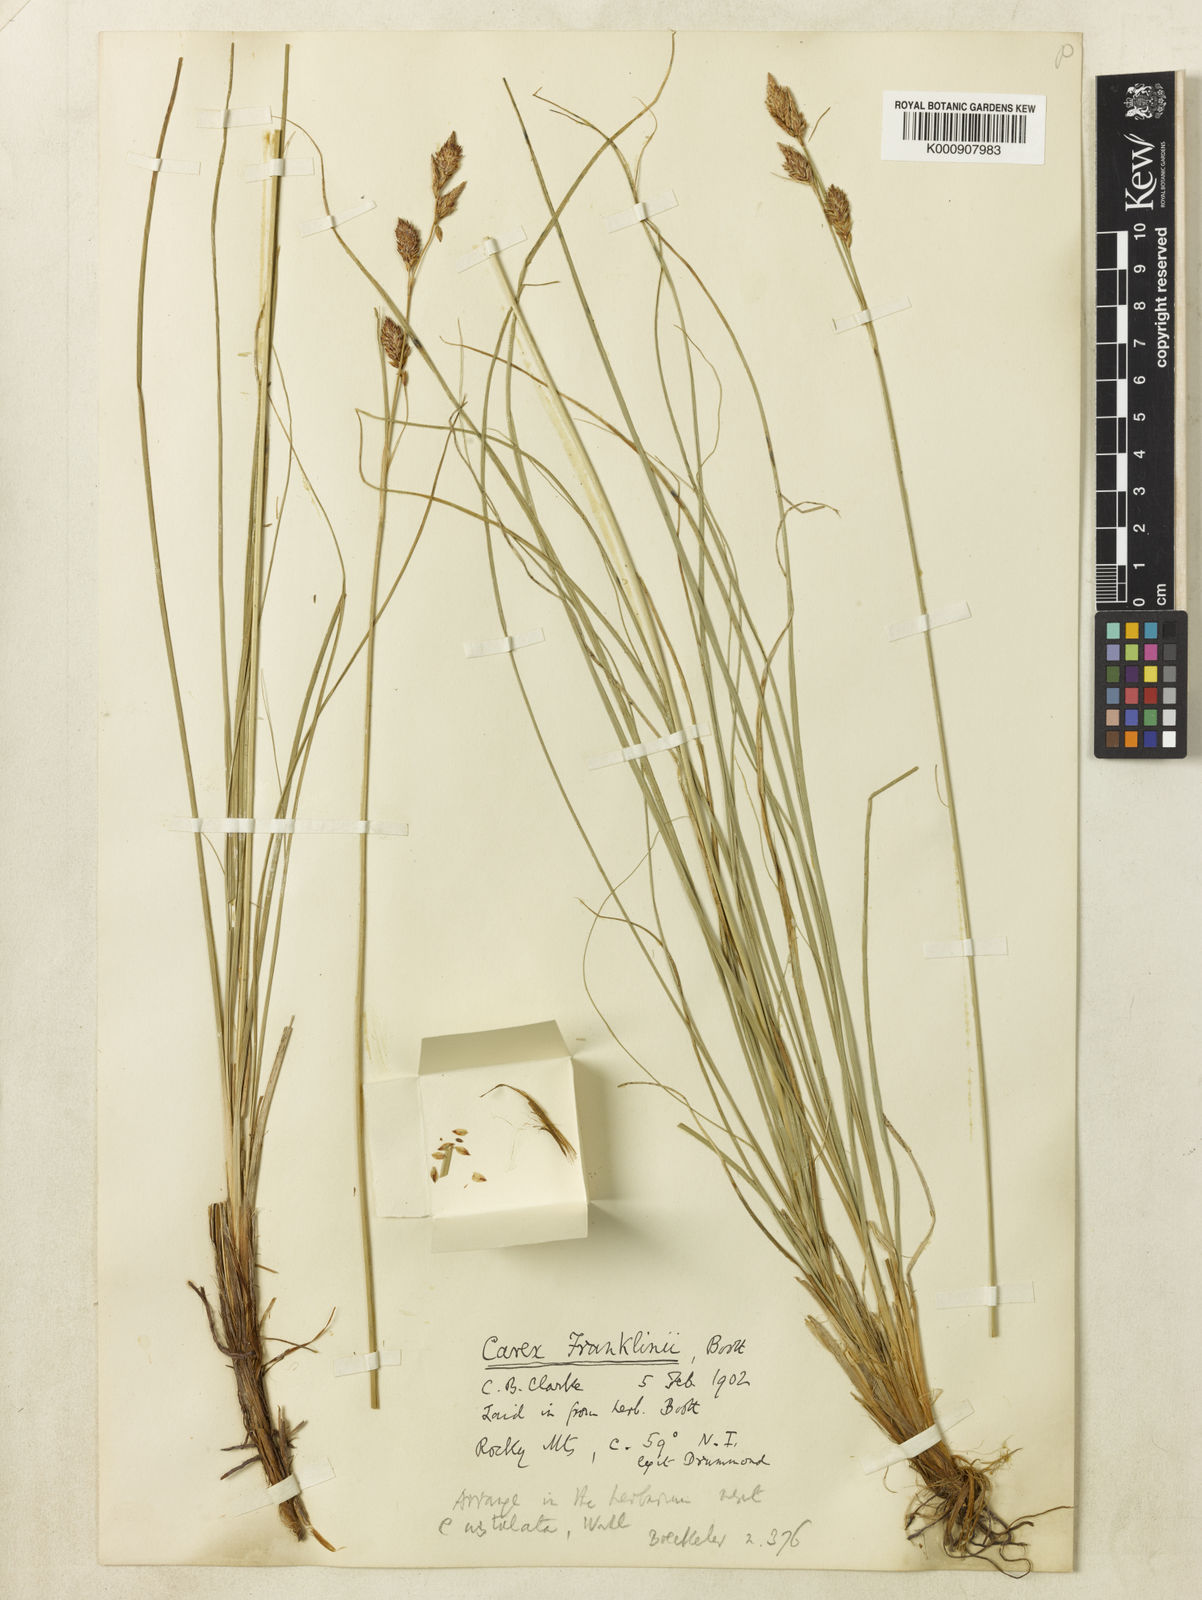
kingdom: Plantae
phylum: Tracheophyta
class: Liliopsida
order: Poales
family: Cyperaceae
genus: Carex
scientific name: Carex petricosa
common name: Rock sedge
